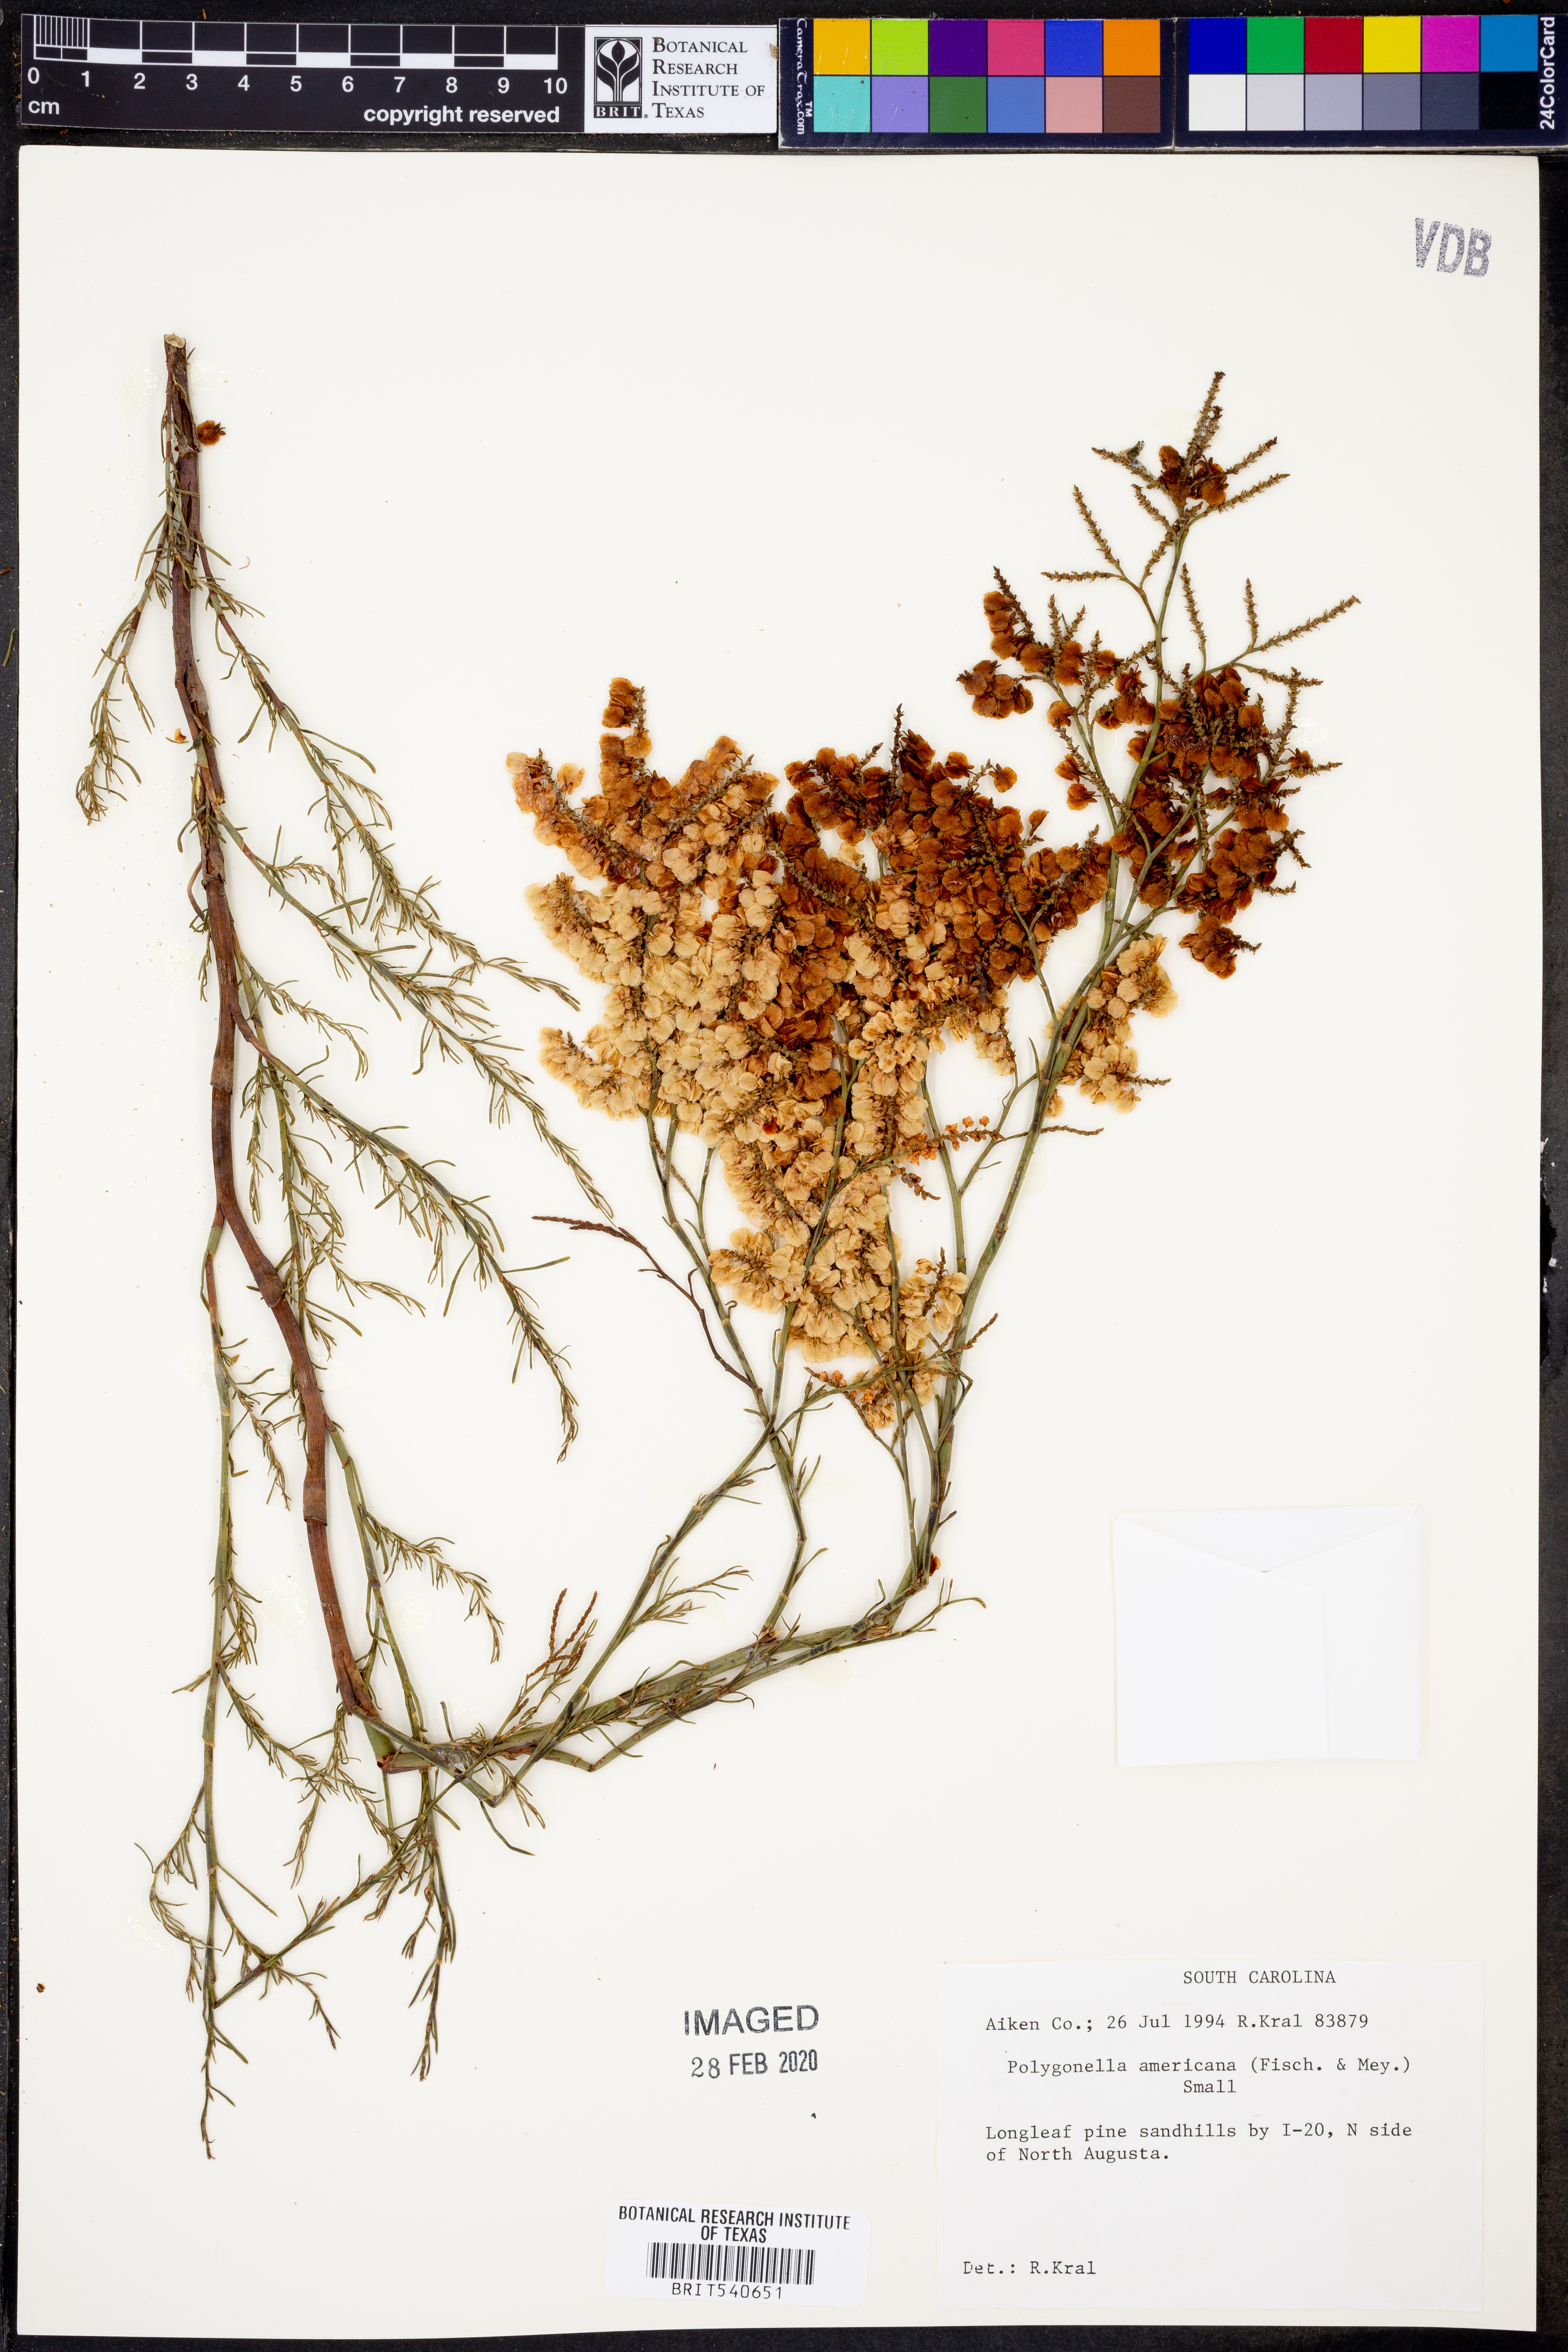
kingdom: Plantae
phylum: Tracheophyta
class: Magnoliopsida
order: Caryophyllales
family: Polygonaceae
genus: Polygonella
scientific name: Polygonella americana
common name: Southern jointweed
